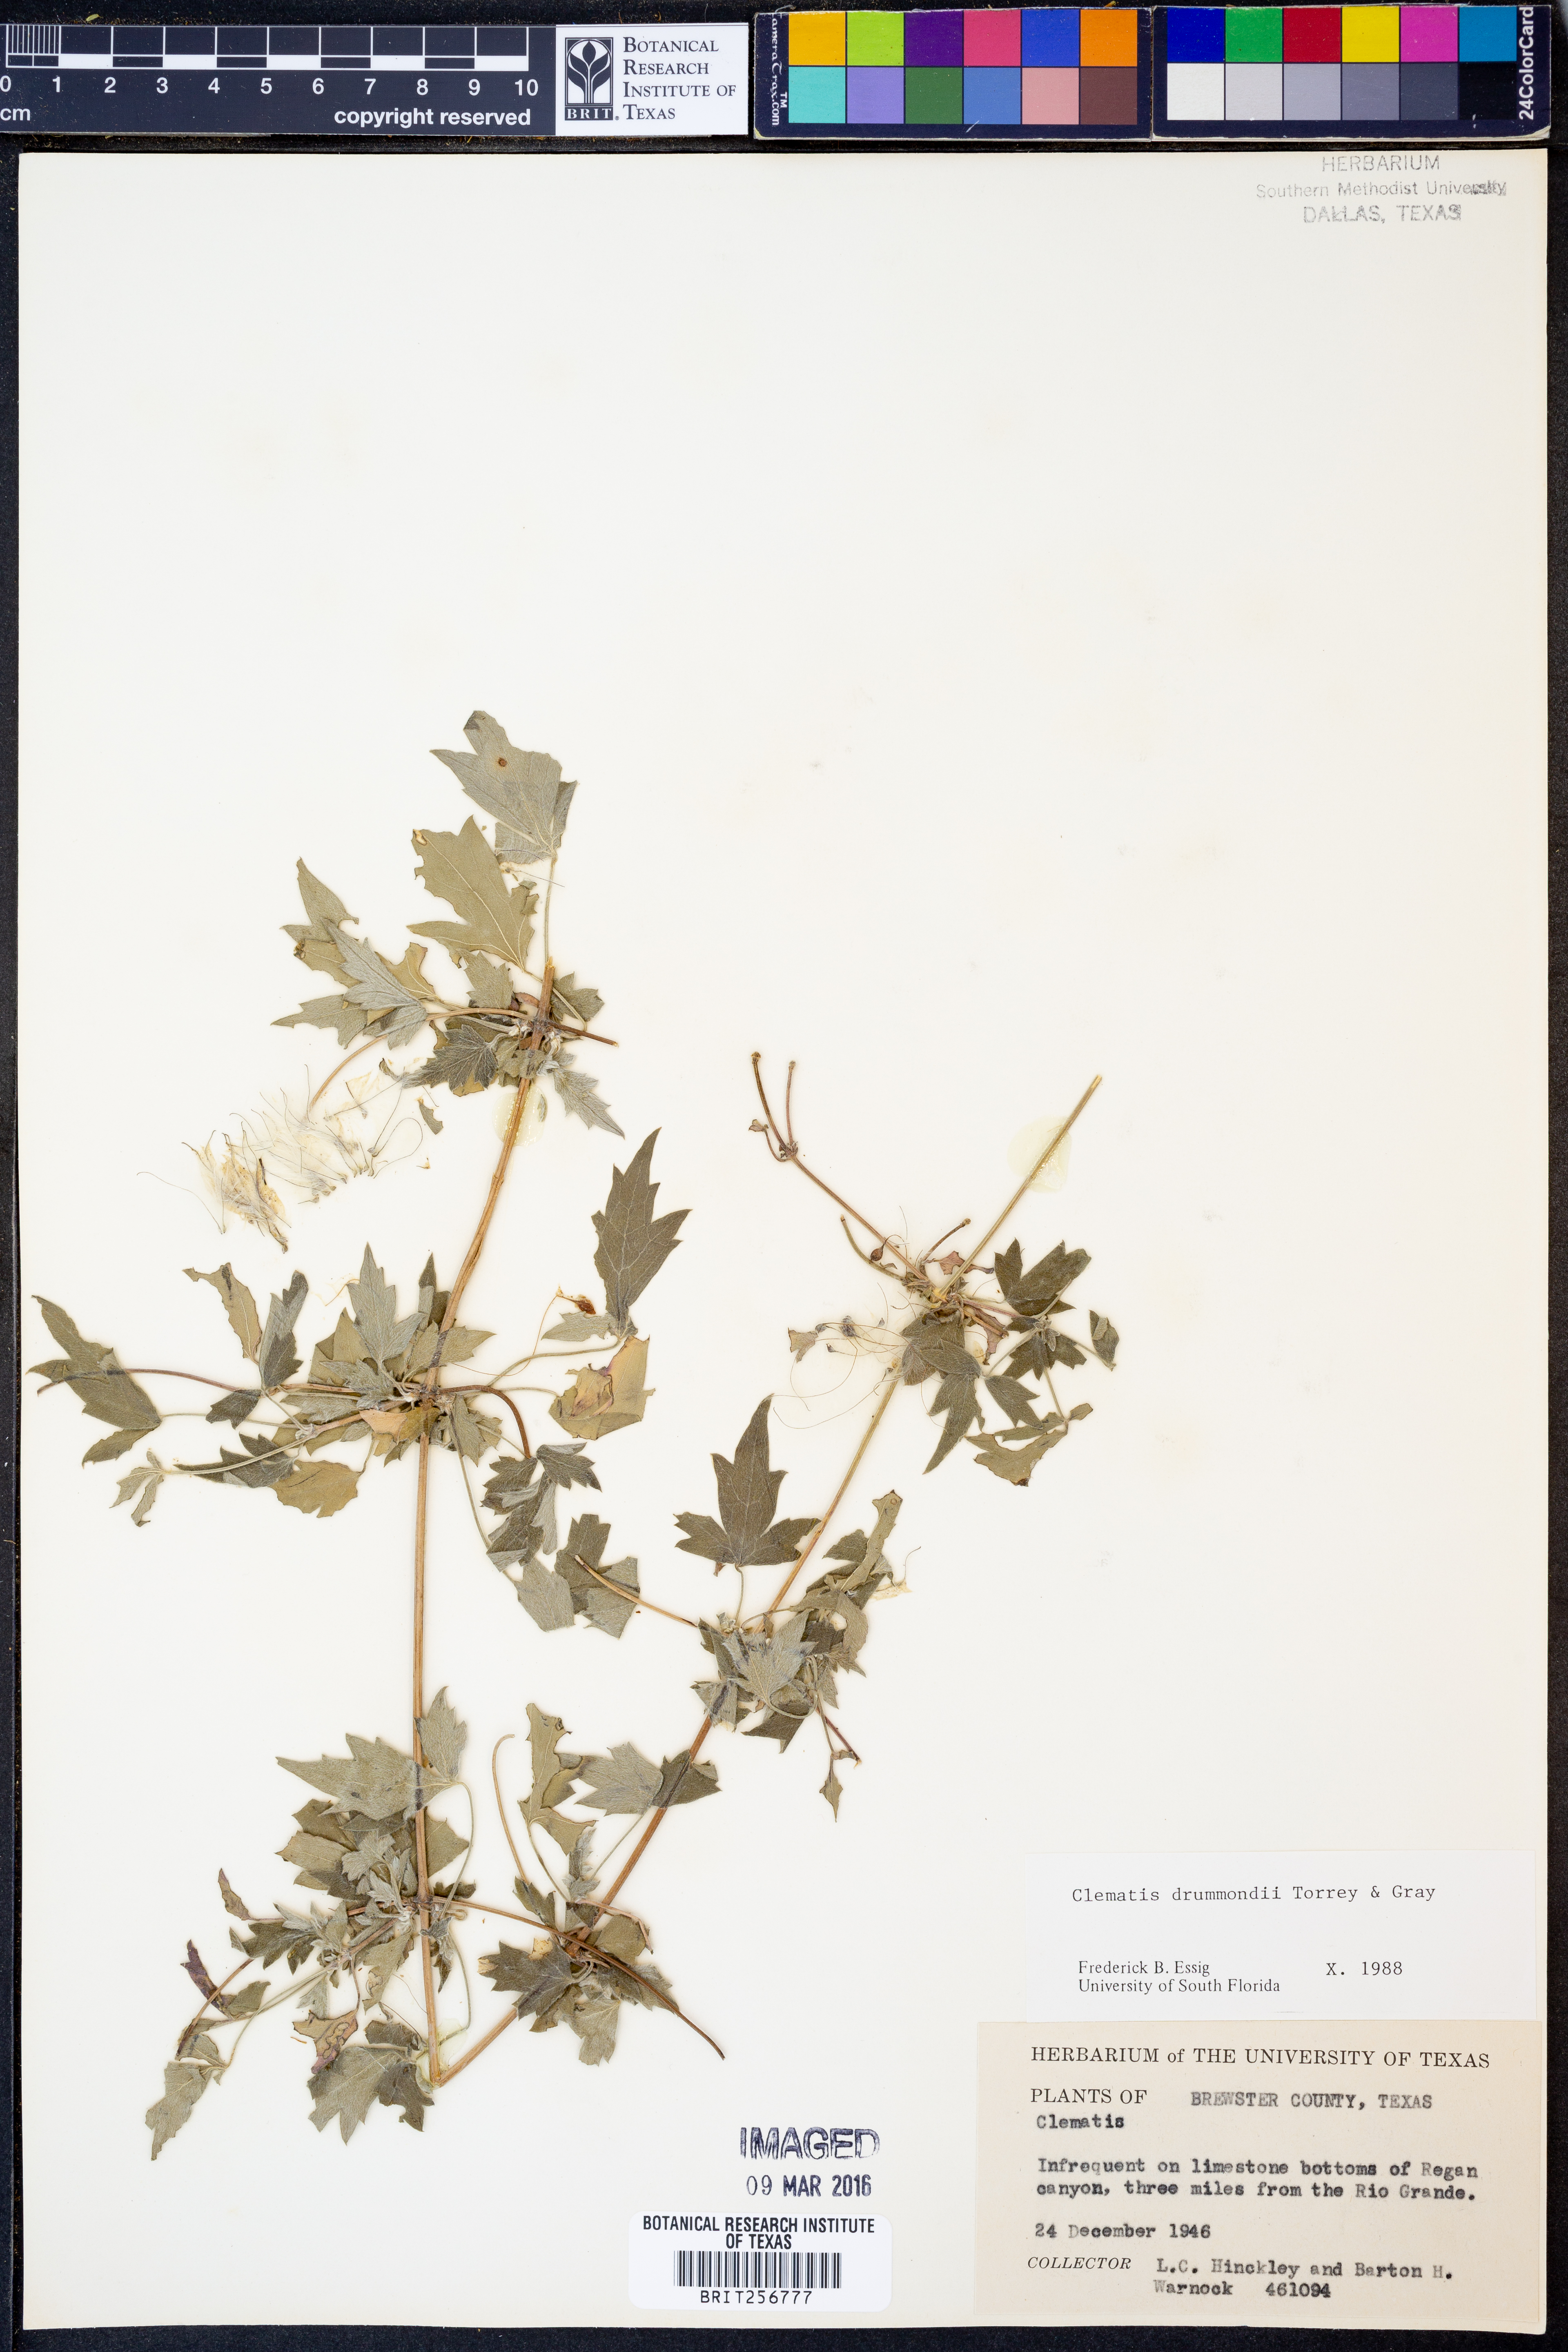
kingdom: Plantae
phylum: Tracheophyta
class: Magnoliopsida
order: Ranunculales
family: Ranunculaceae
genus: Clematis
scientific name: Clematis drummondii
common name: Texas virgin's bower
